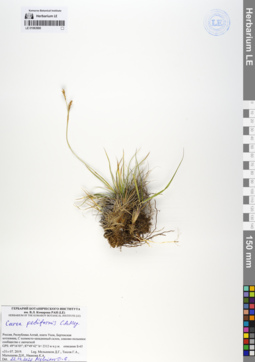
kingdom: Plantae
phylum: Tracheophyta
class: Liliopsida
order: Poales
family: Cyperaceae
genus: Carex
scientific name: Carex pediformis
